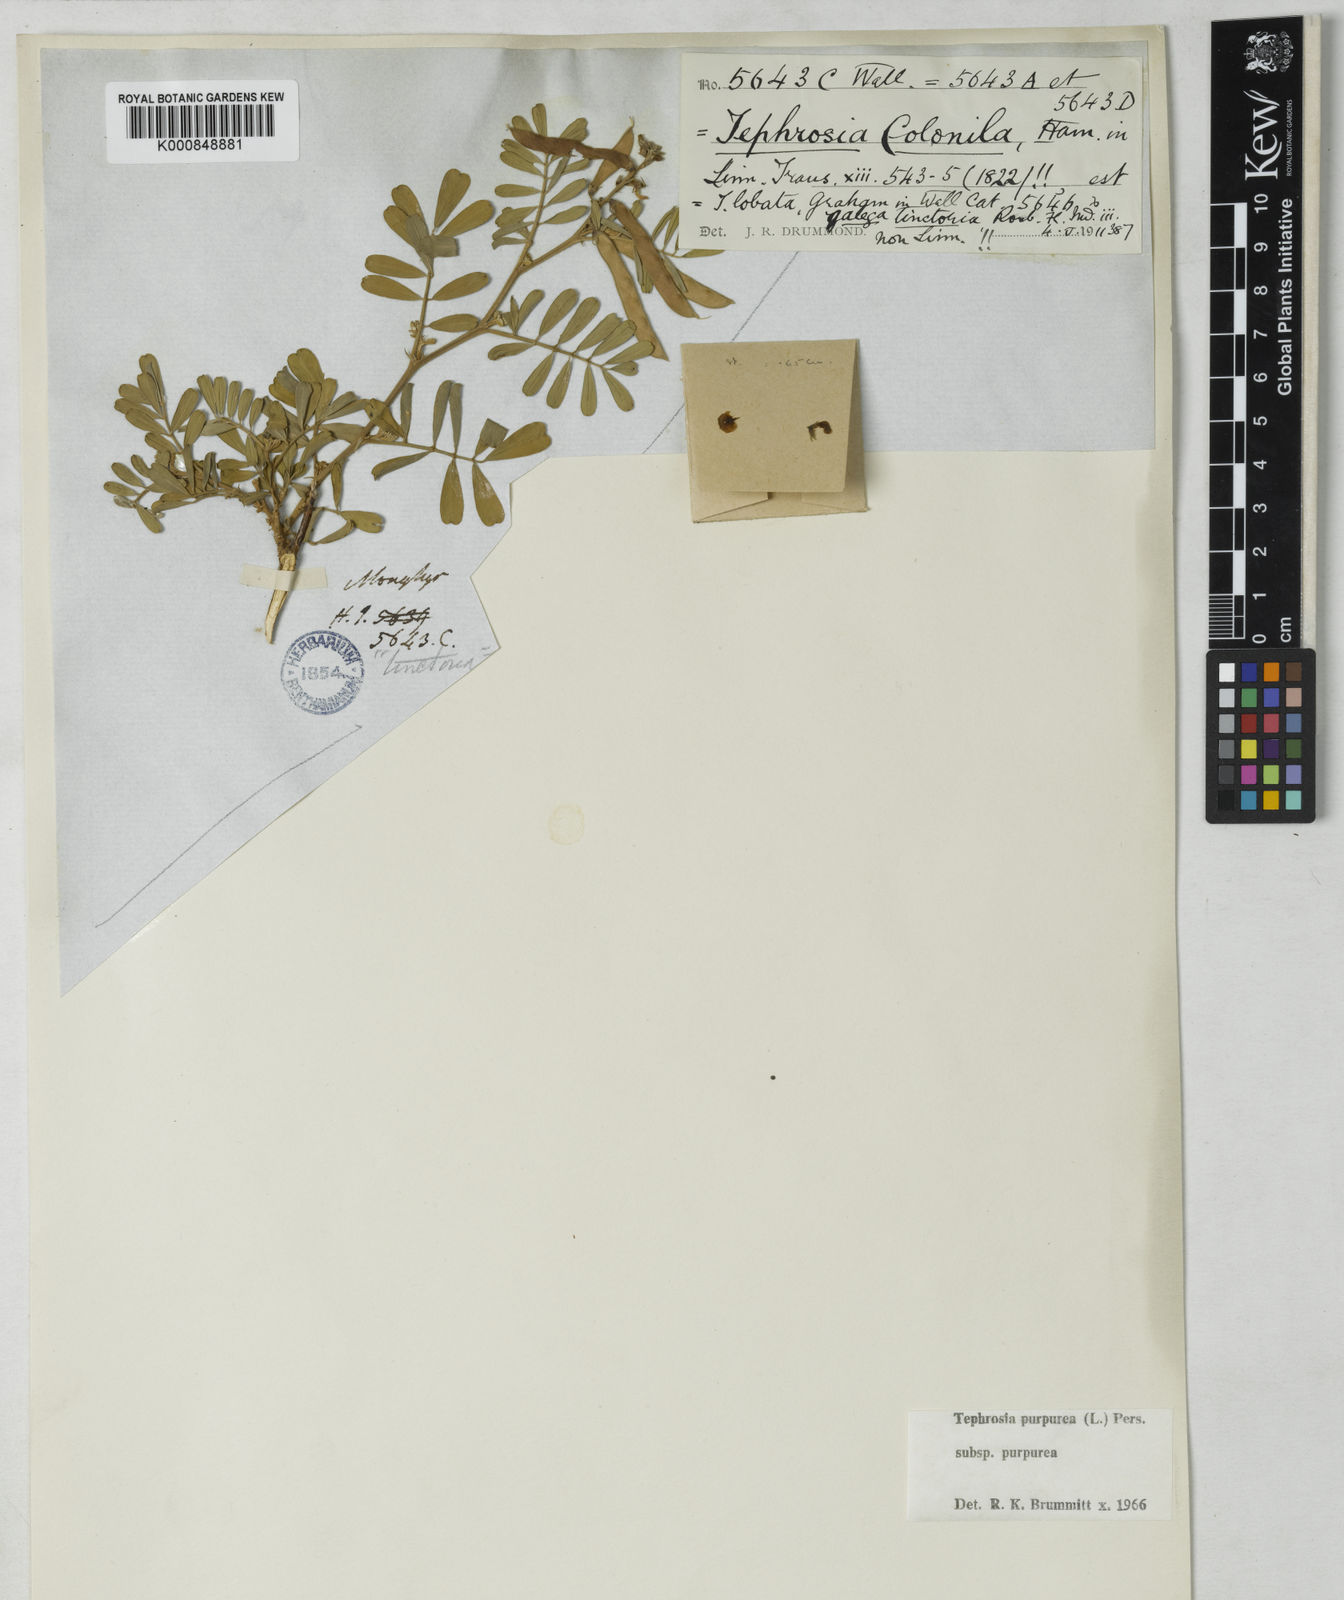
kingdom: Plantae
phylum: Tracheophyta
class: Magnoliopsida
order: Fabales
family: Fabaceae
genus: Tephrosia
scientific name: Tephrosia purpurea
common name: Fishpoison
